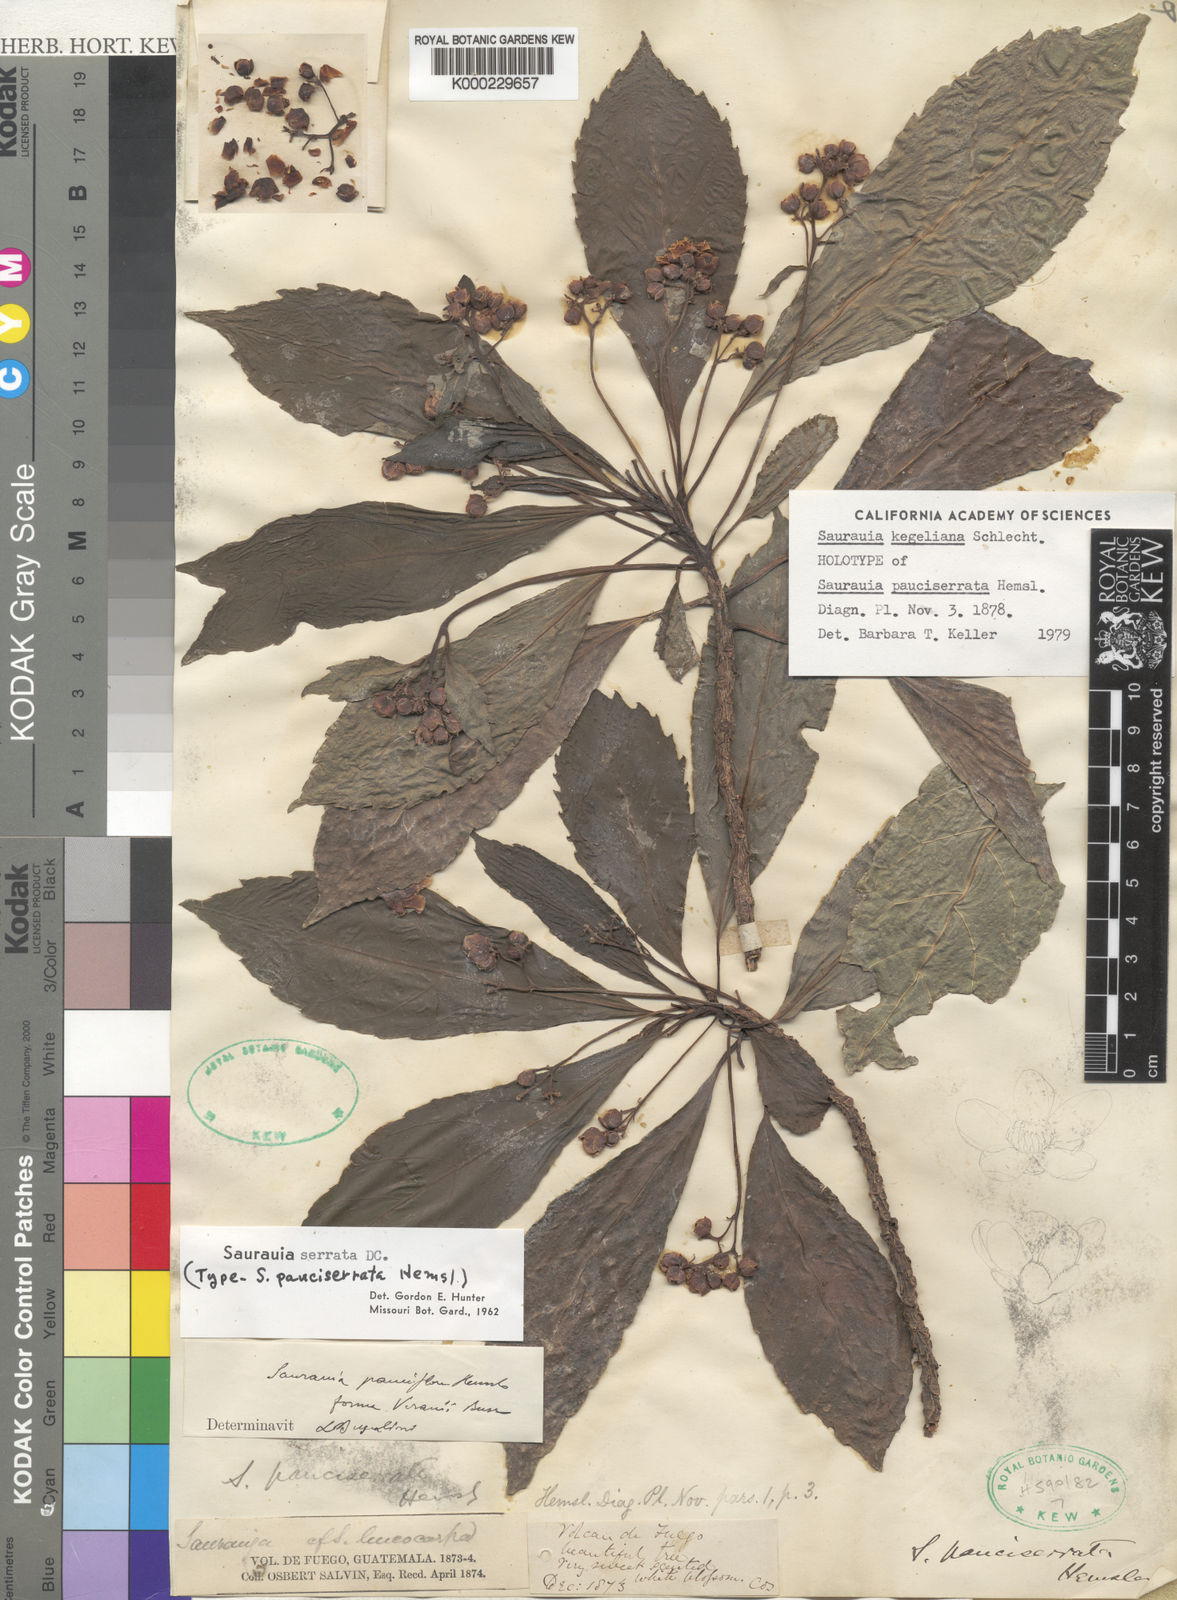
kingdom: Plantae
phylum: Tracheophyta
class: Magnoliopsida
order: Ericales
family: Actinidiaceae
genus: Saurauia
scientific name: Saurauia kegeliana
